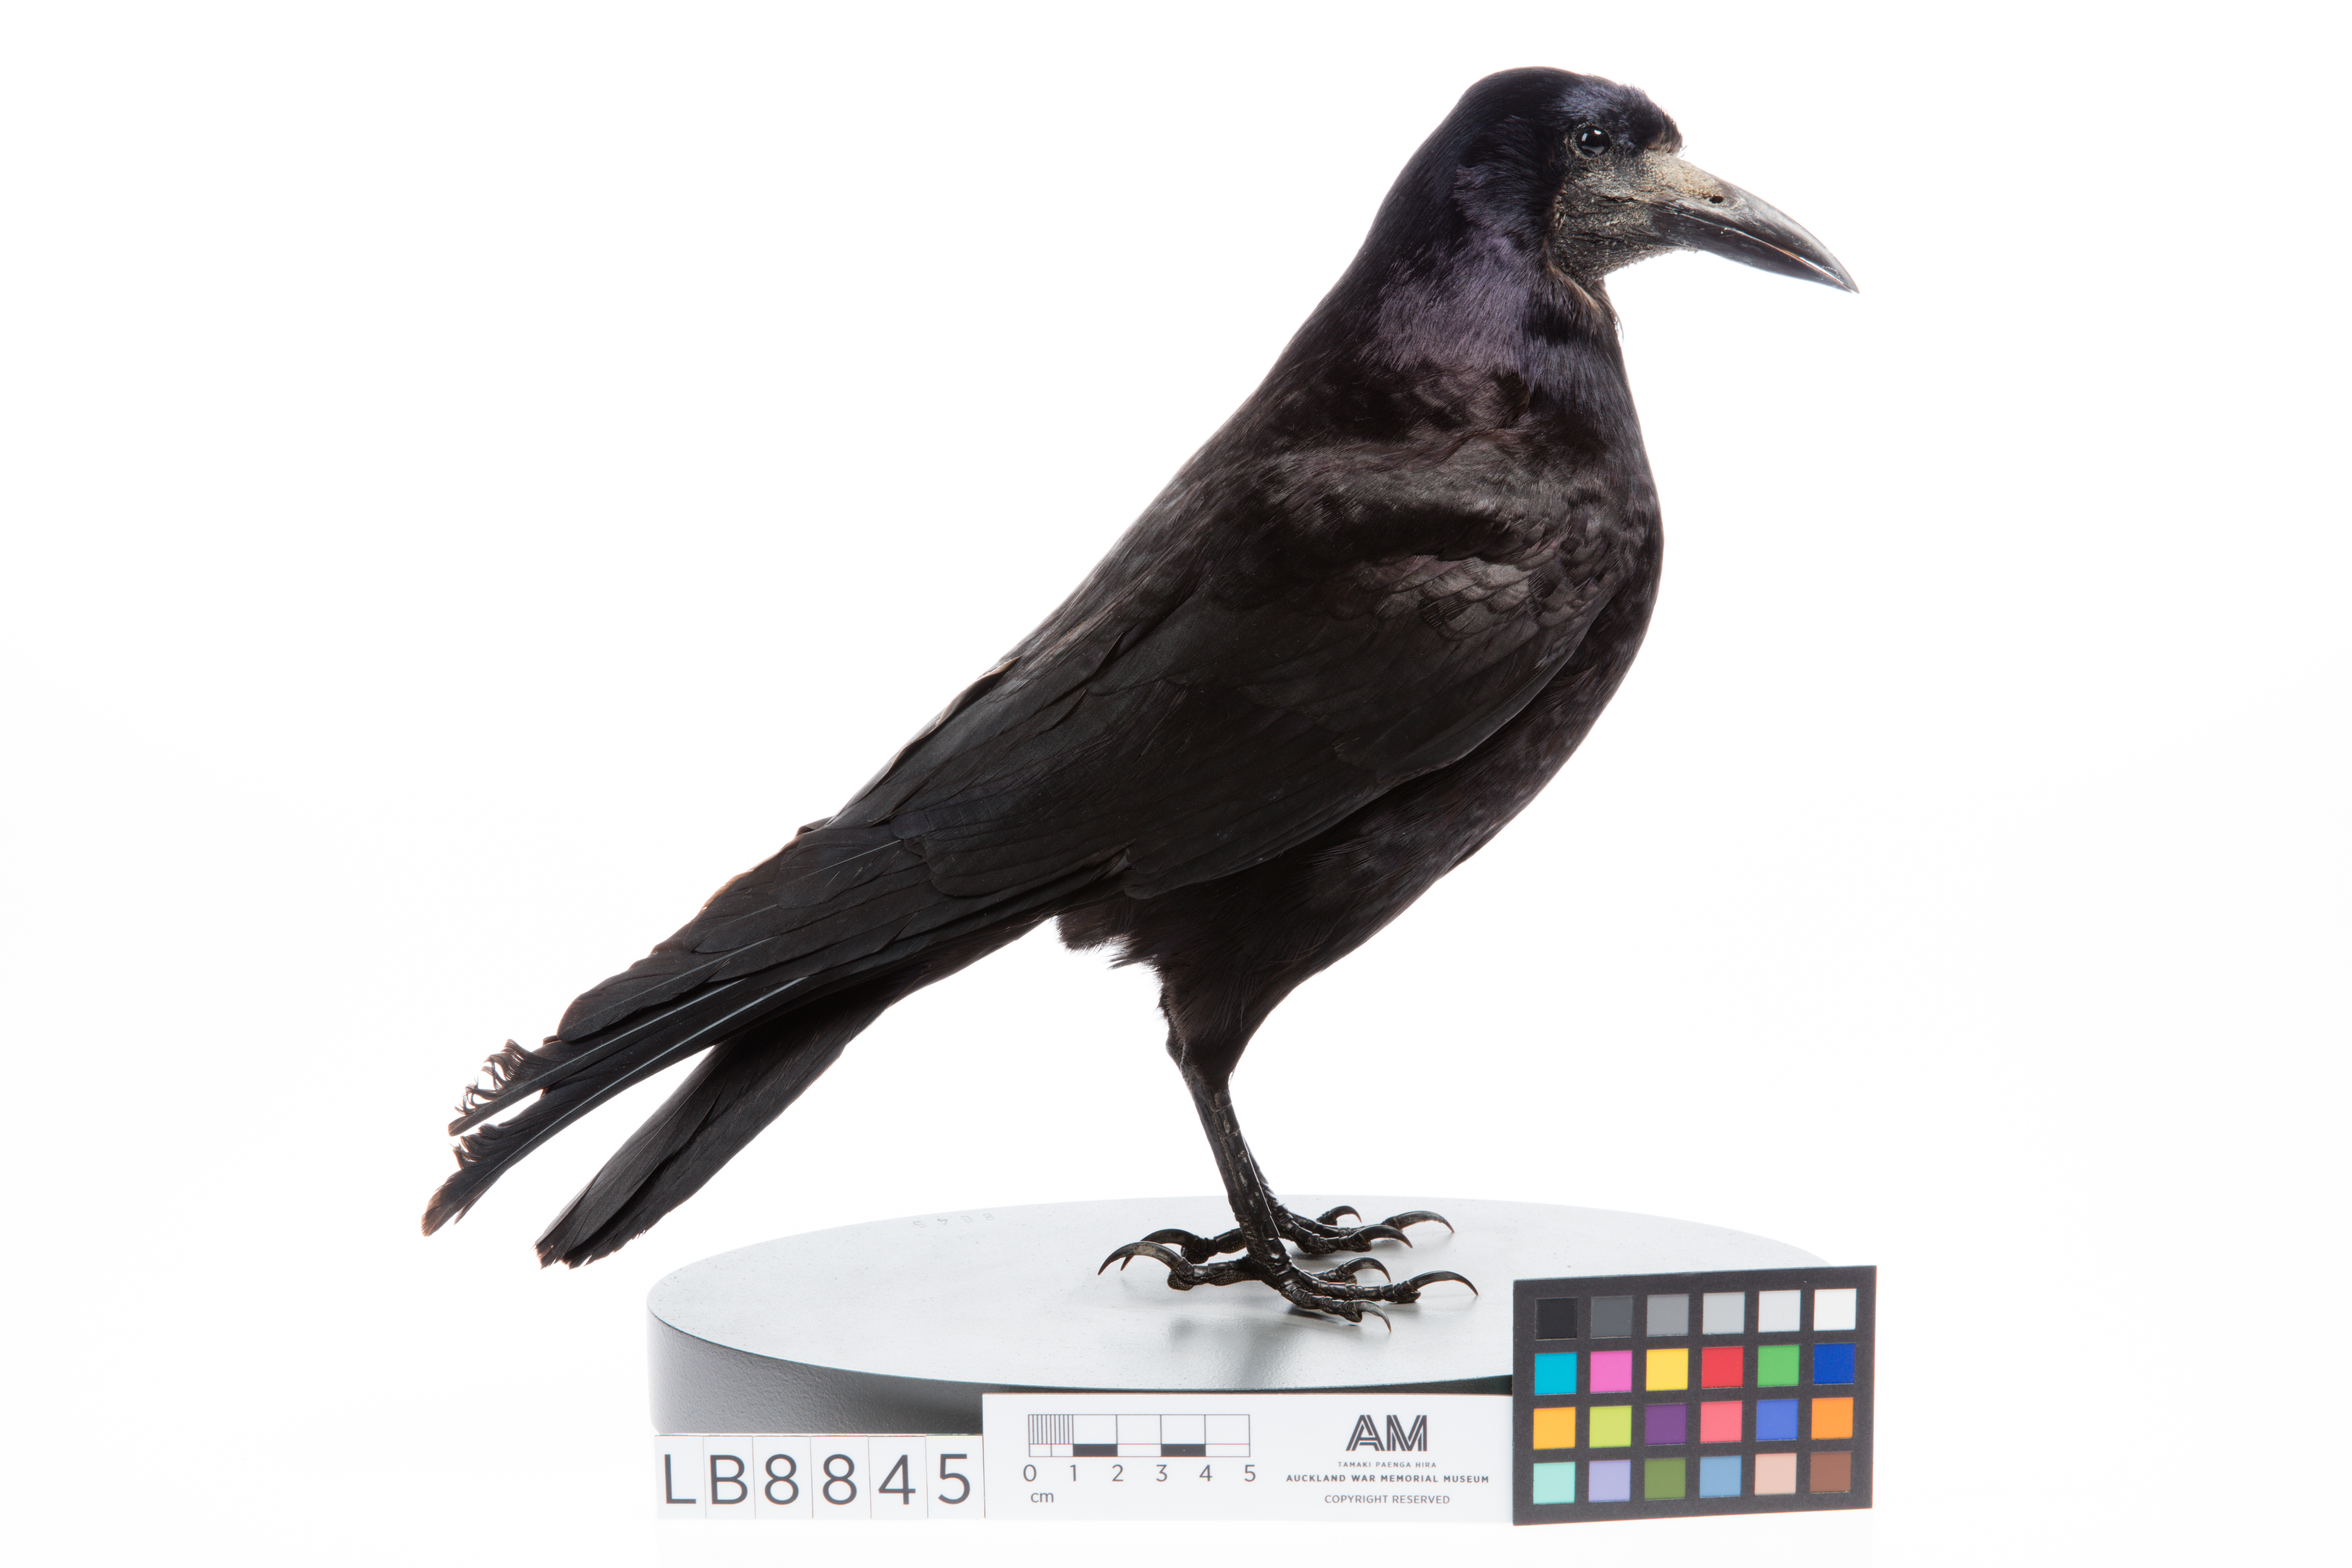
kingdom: Animalia
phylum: Chordata
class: Aves
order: Passeriformes
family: Corvidae
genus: Corvus
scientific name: Corvus frugilegus
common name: Rook
